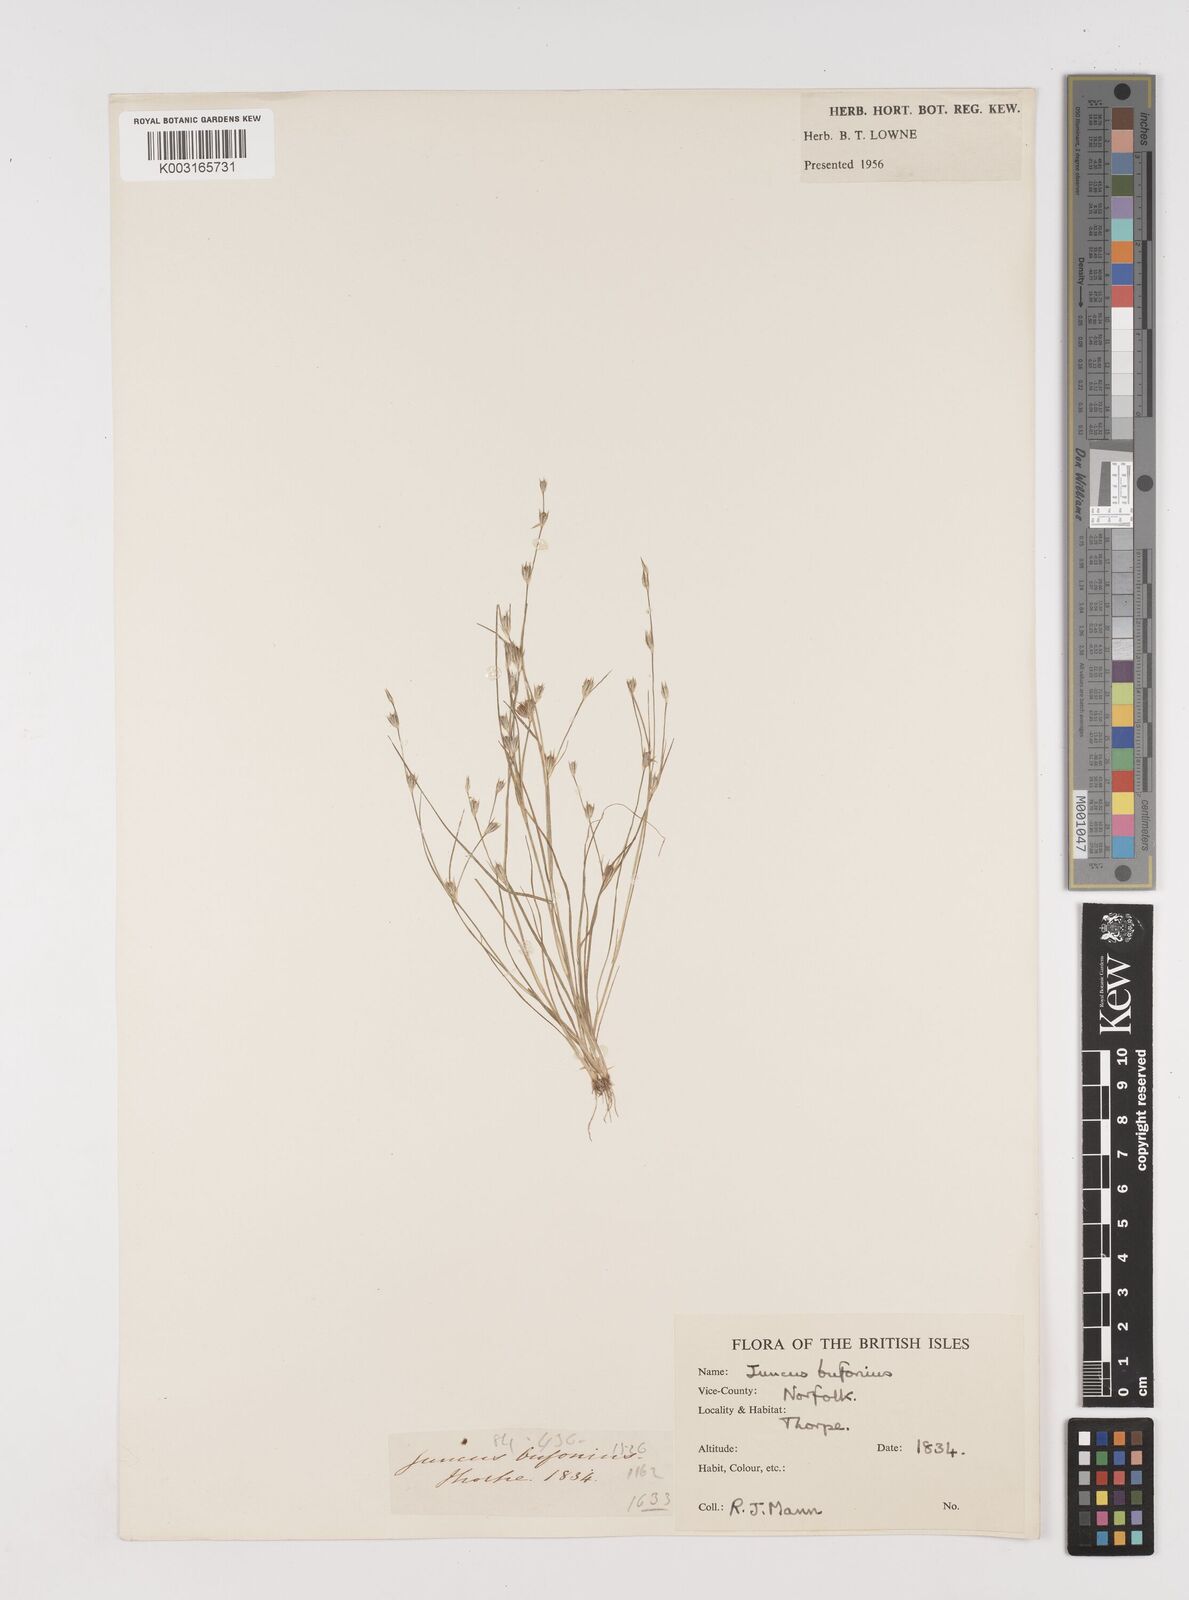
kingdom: Plantae
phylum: Tracheophyta
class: Liliopsida
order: Poales
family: Juncaceae
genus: Juncus
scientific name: Juncus bufonius
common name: Toad rush
